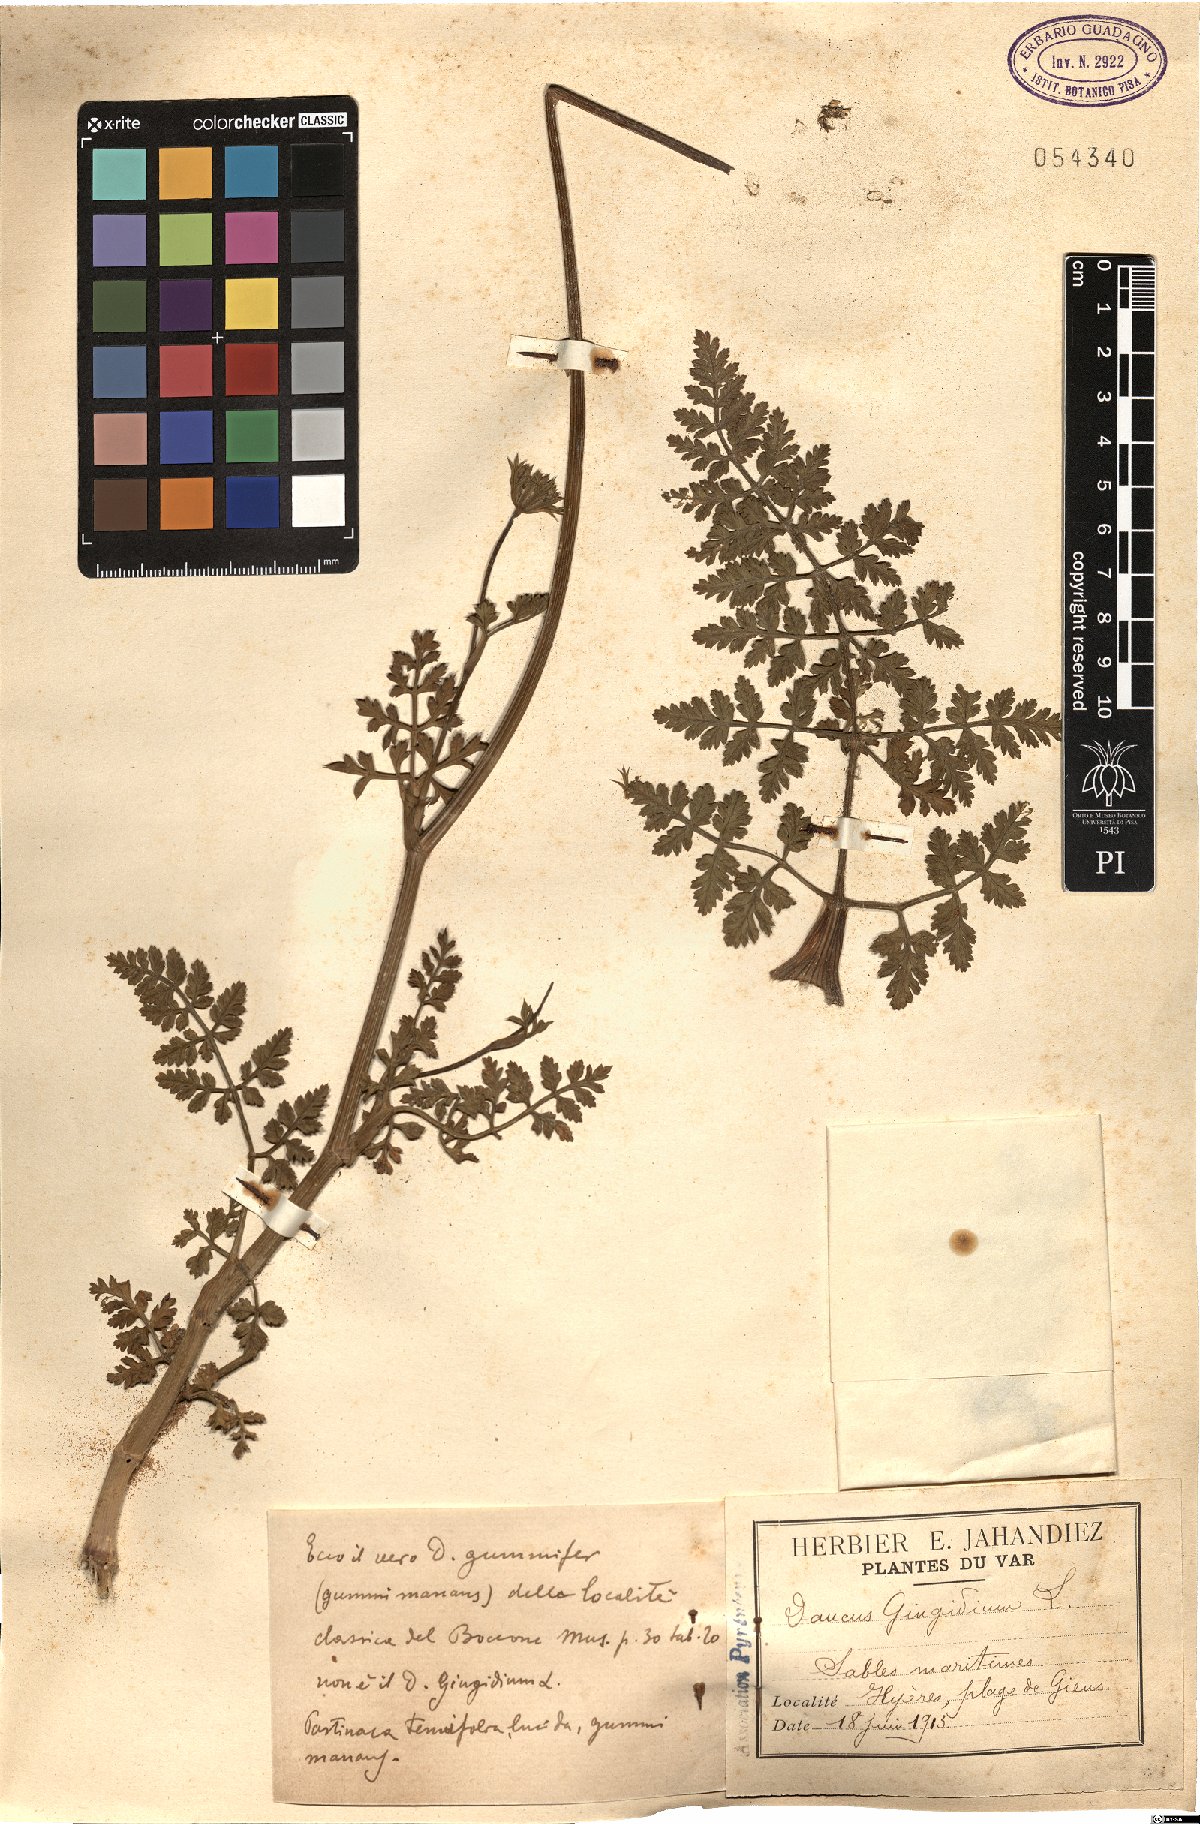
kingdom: Plantae
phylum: Tracheophyta
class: Magnoliopsida
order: Apiales
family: Apiaceae
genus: Daucus
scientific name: Daucus carota
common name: Wild carrot
